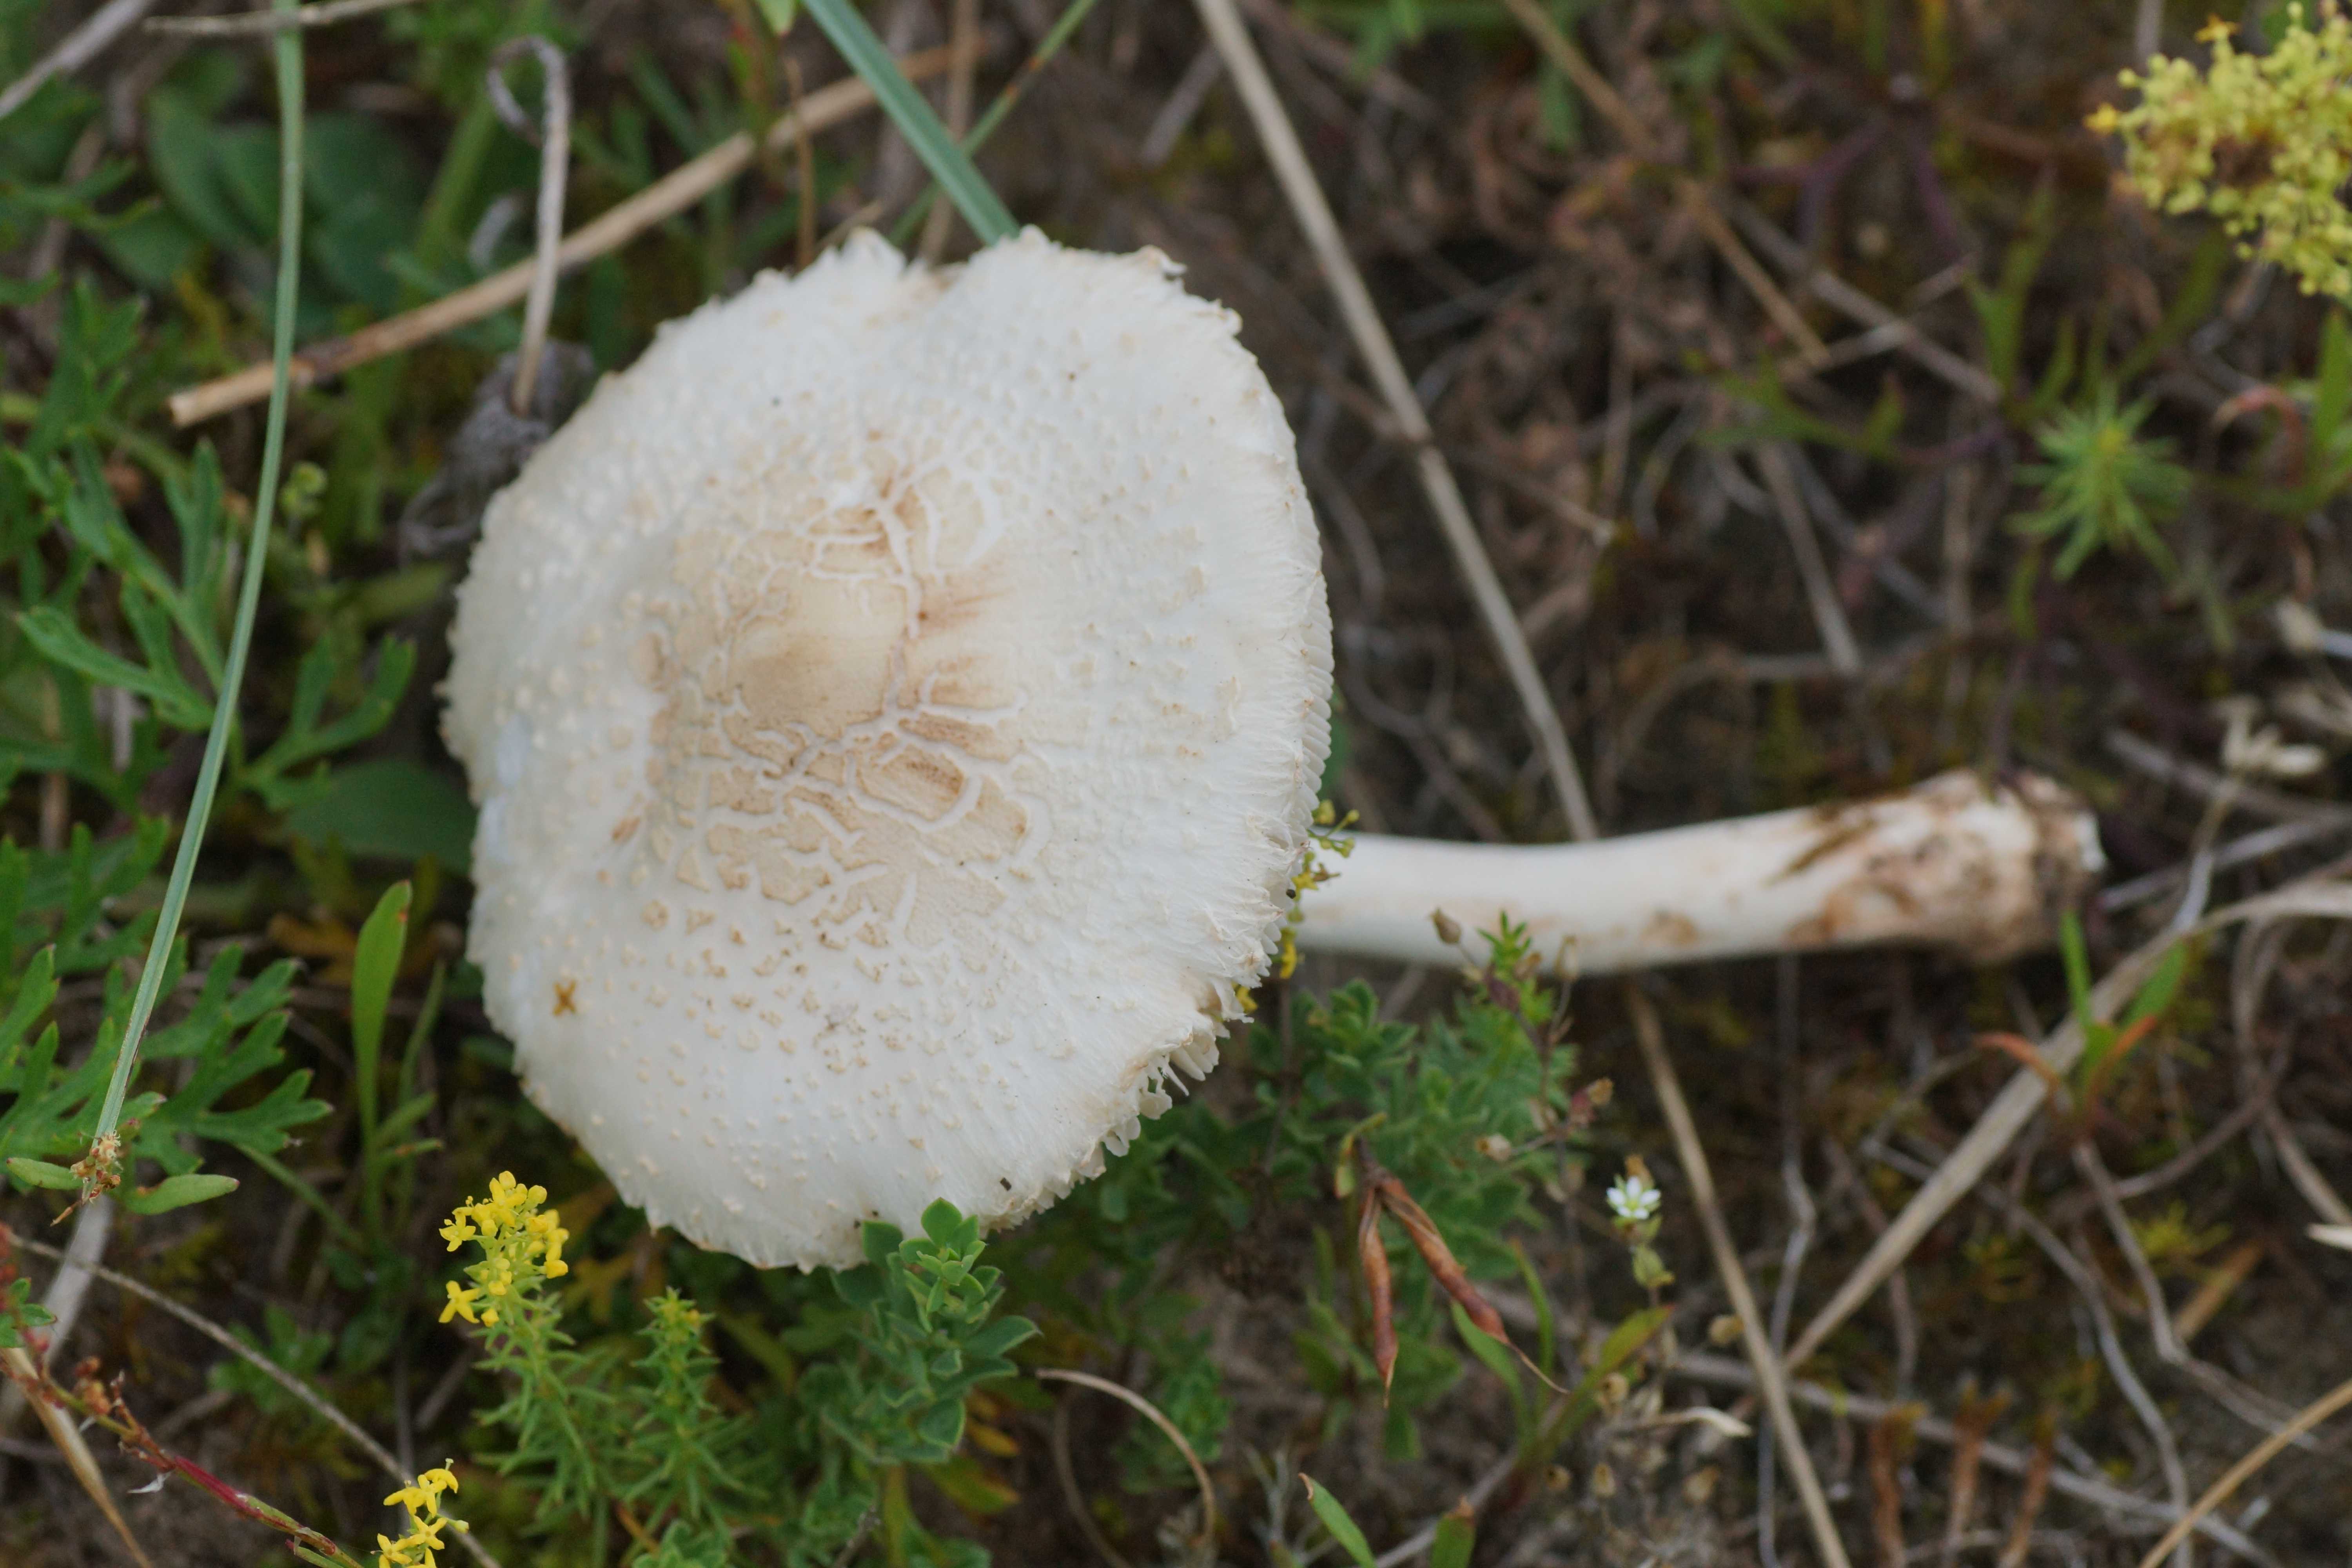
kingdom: Fungi
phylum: Basidiomycota
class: Agaricomycetes
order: Agaricales
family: Agaricaceae
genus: Leucoagaricus
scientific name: Leucoagaricus leucothites
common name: rosabladet silkehat
